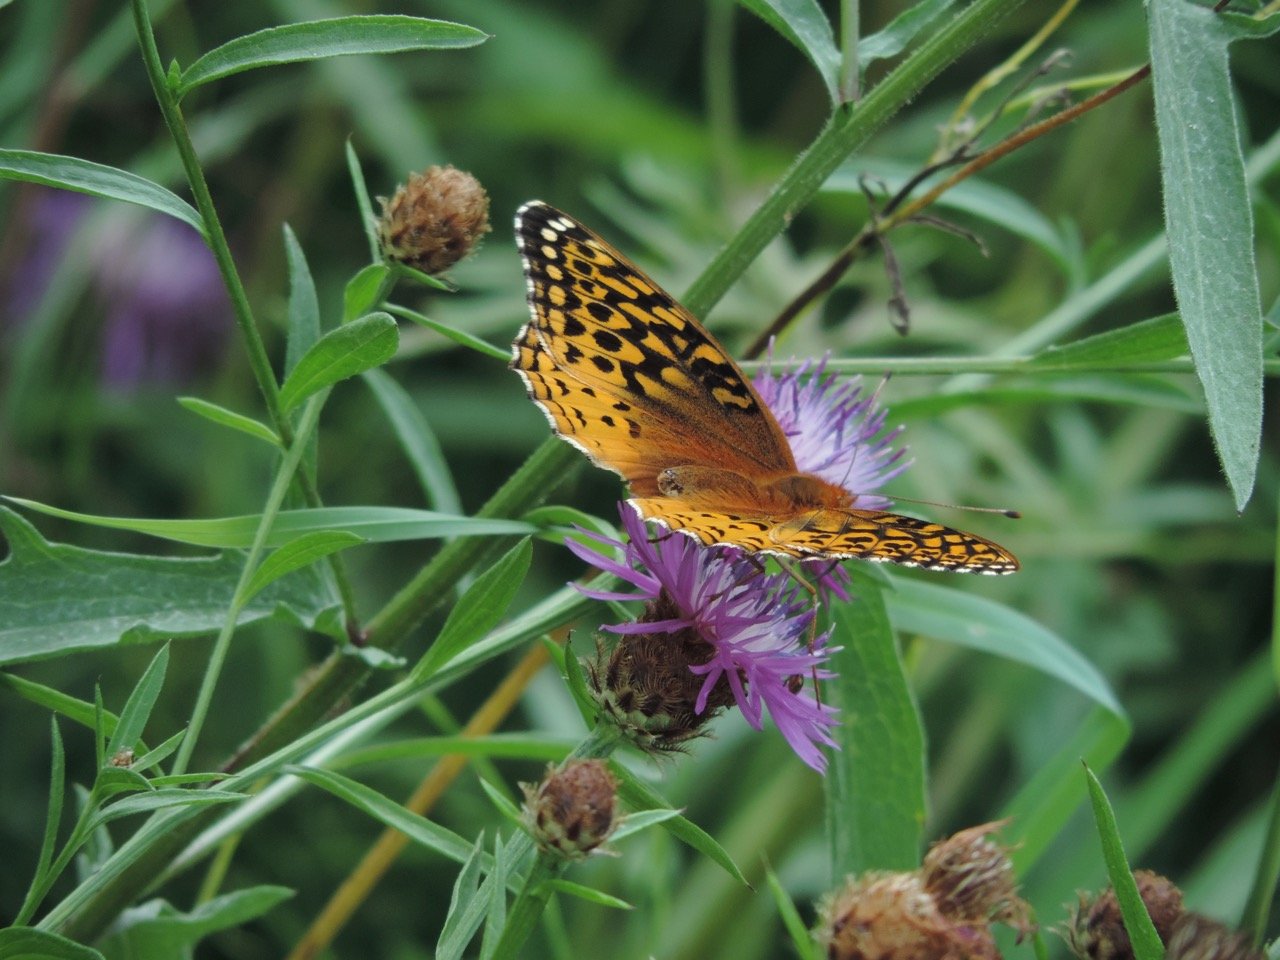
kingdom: Animalia
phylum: Arthropoda
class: Insecta
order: Lepidoptera
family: Nymphalidae
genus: Speyeria
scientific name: Speyeria cybele
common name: Great Spangled Fritillary
